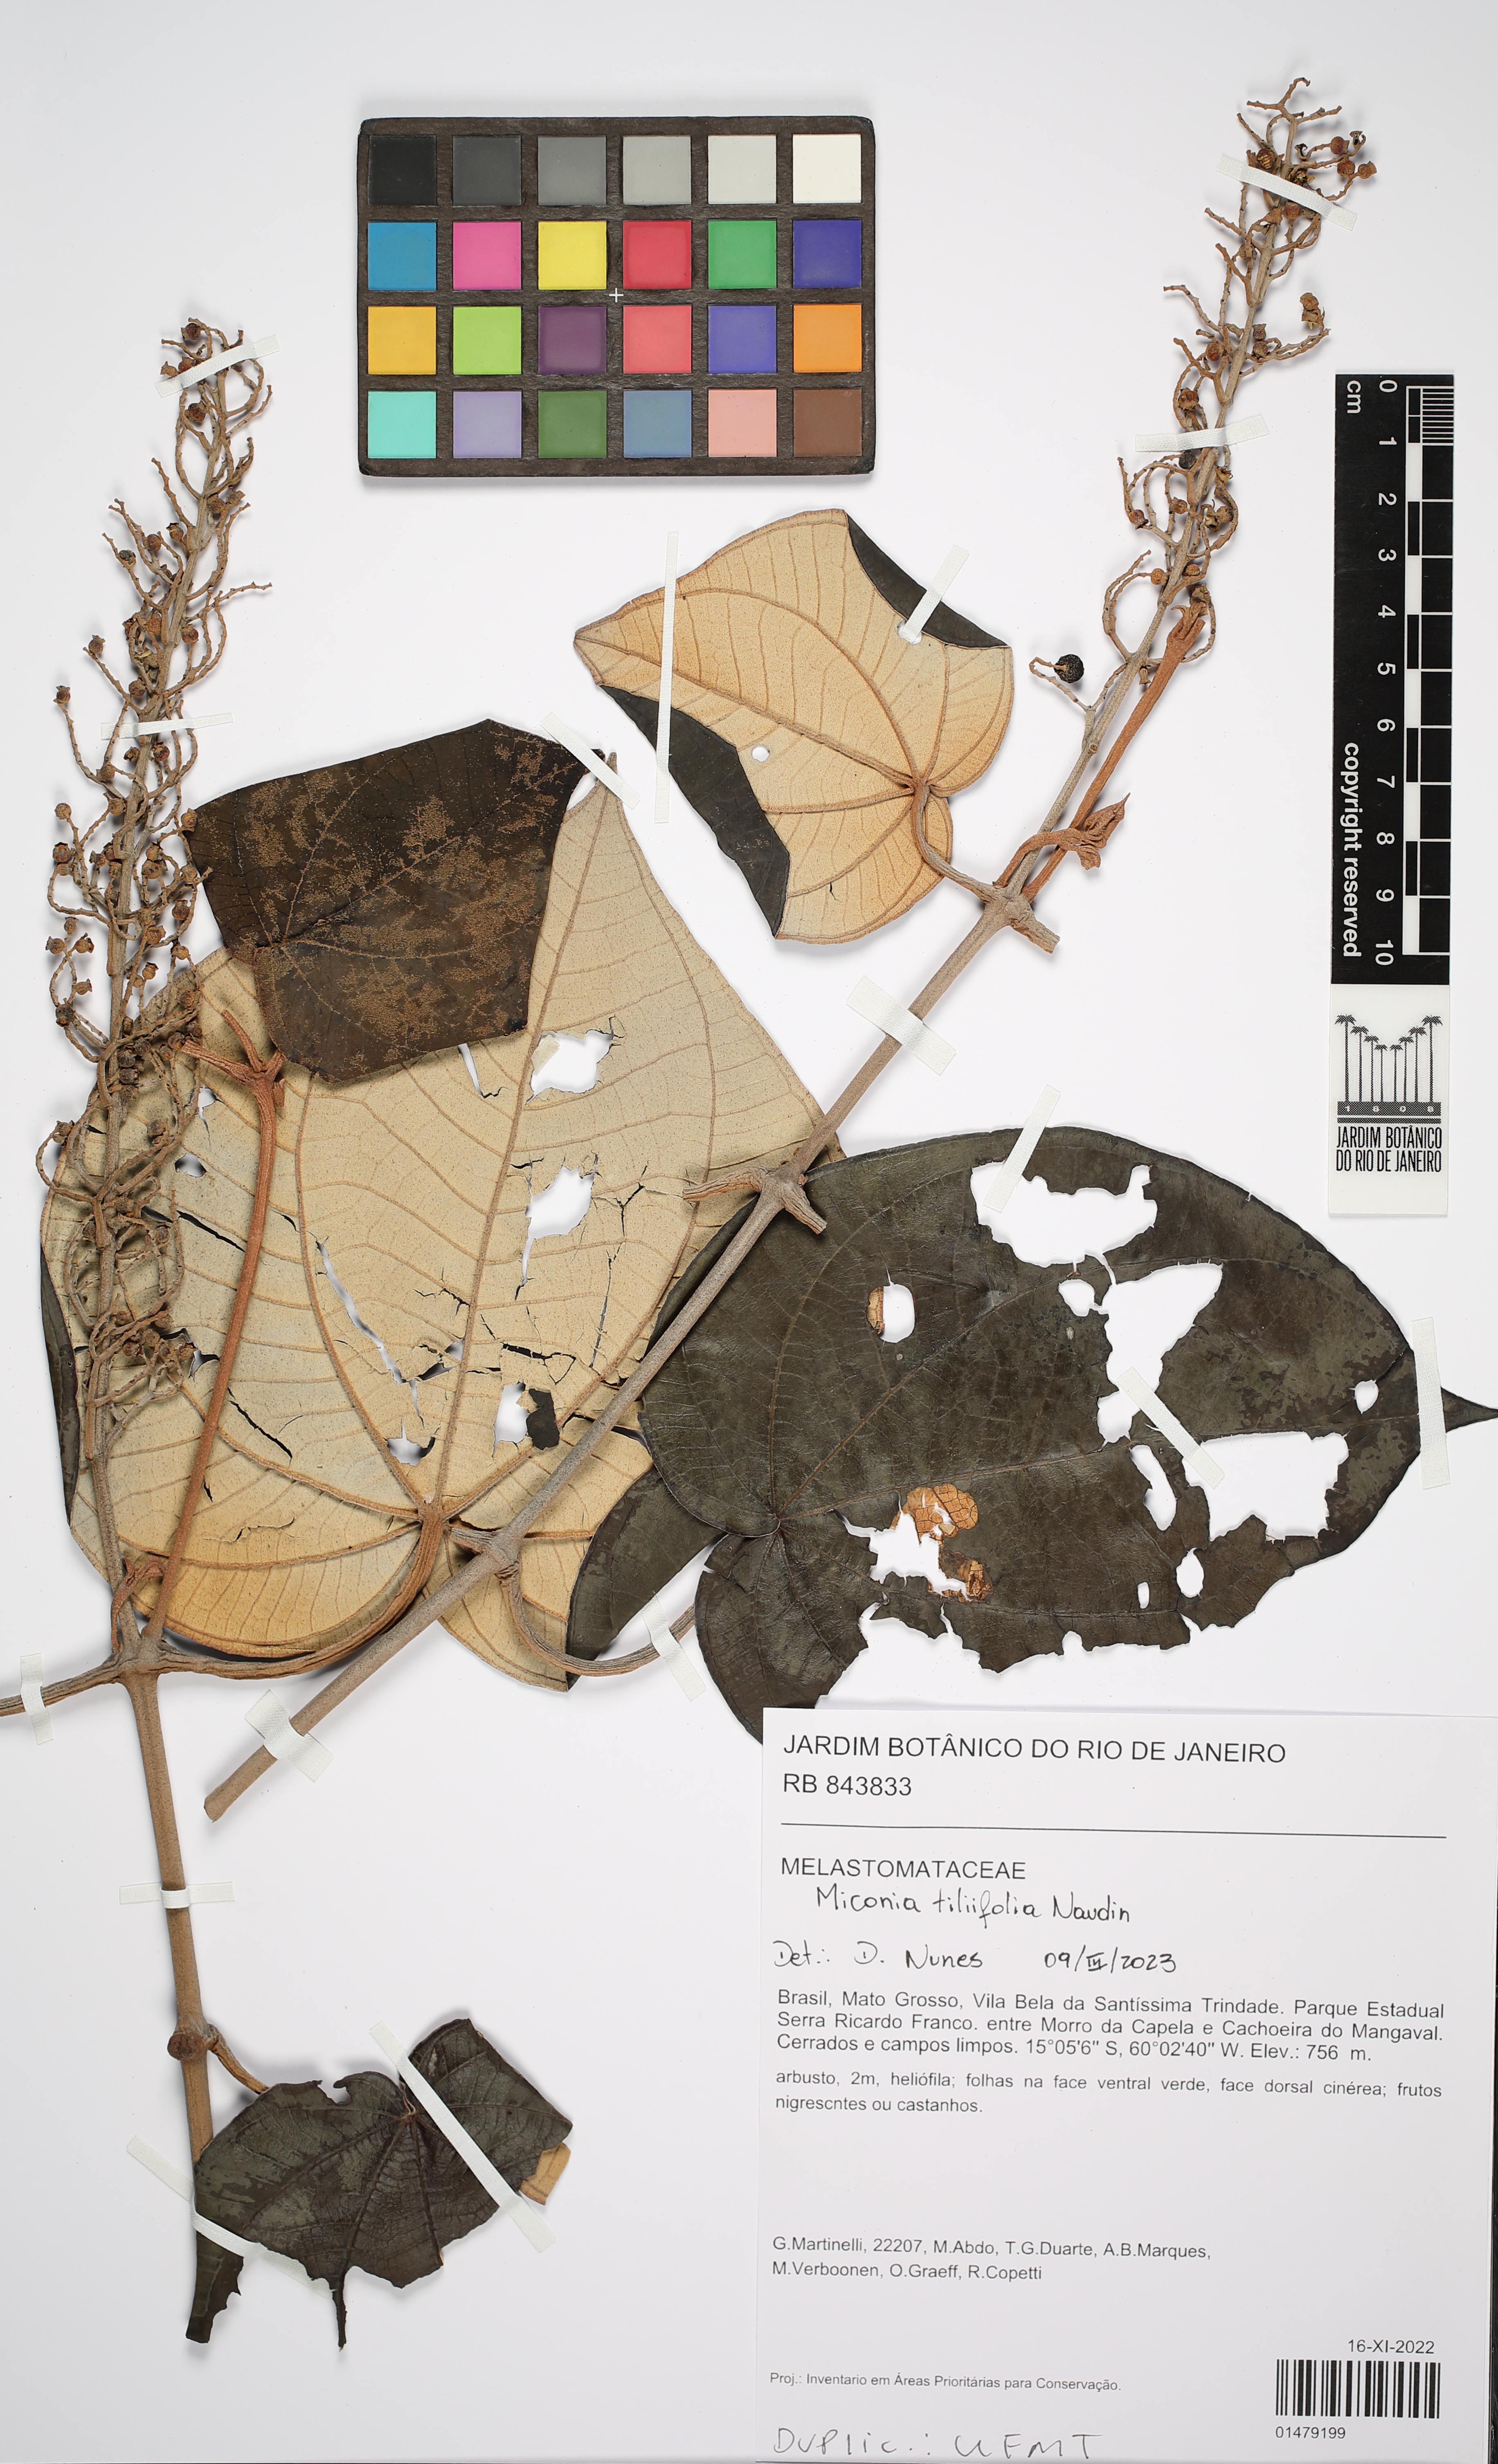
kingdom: Plantae
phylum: Tracheophyta
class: Magnoliopsida
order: Myrtales
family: Melastomataceae
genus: Miconia
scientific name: Miconia tiliifolia
